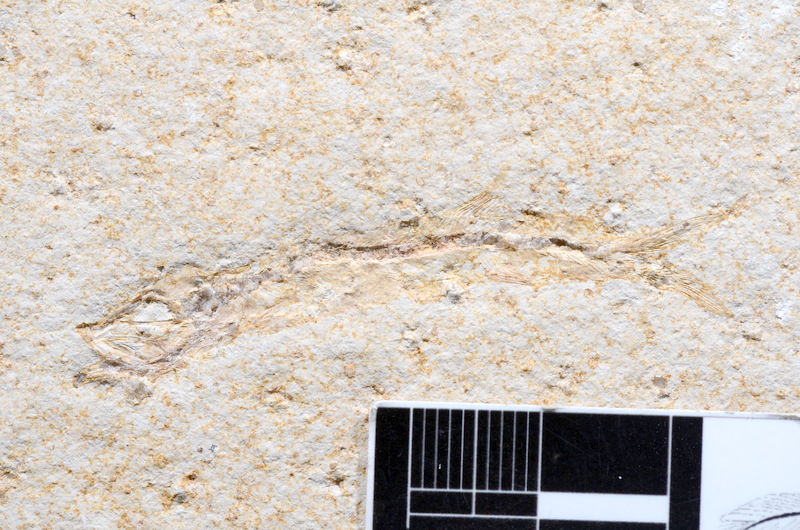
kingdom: Animalia
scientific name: Animalia
